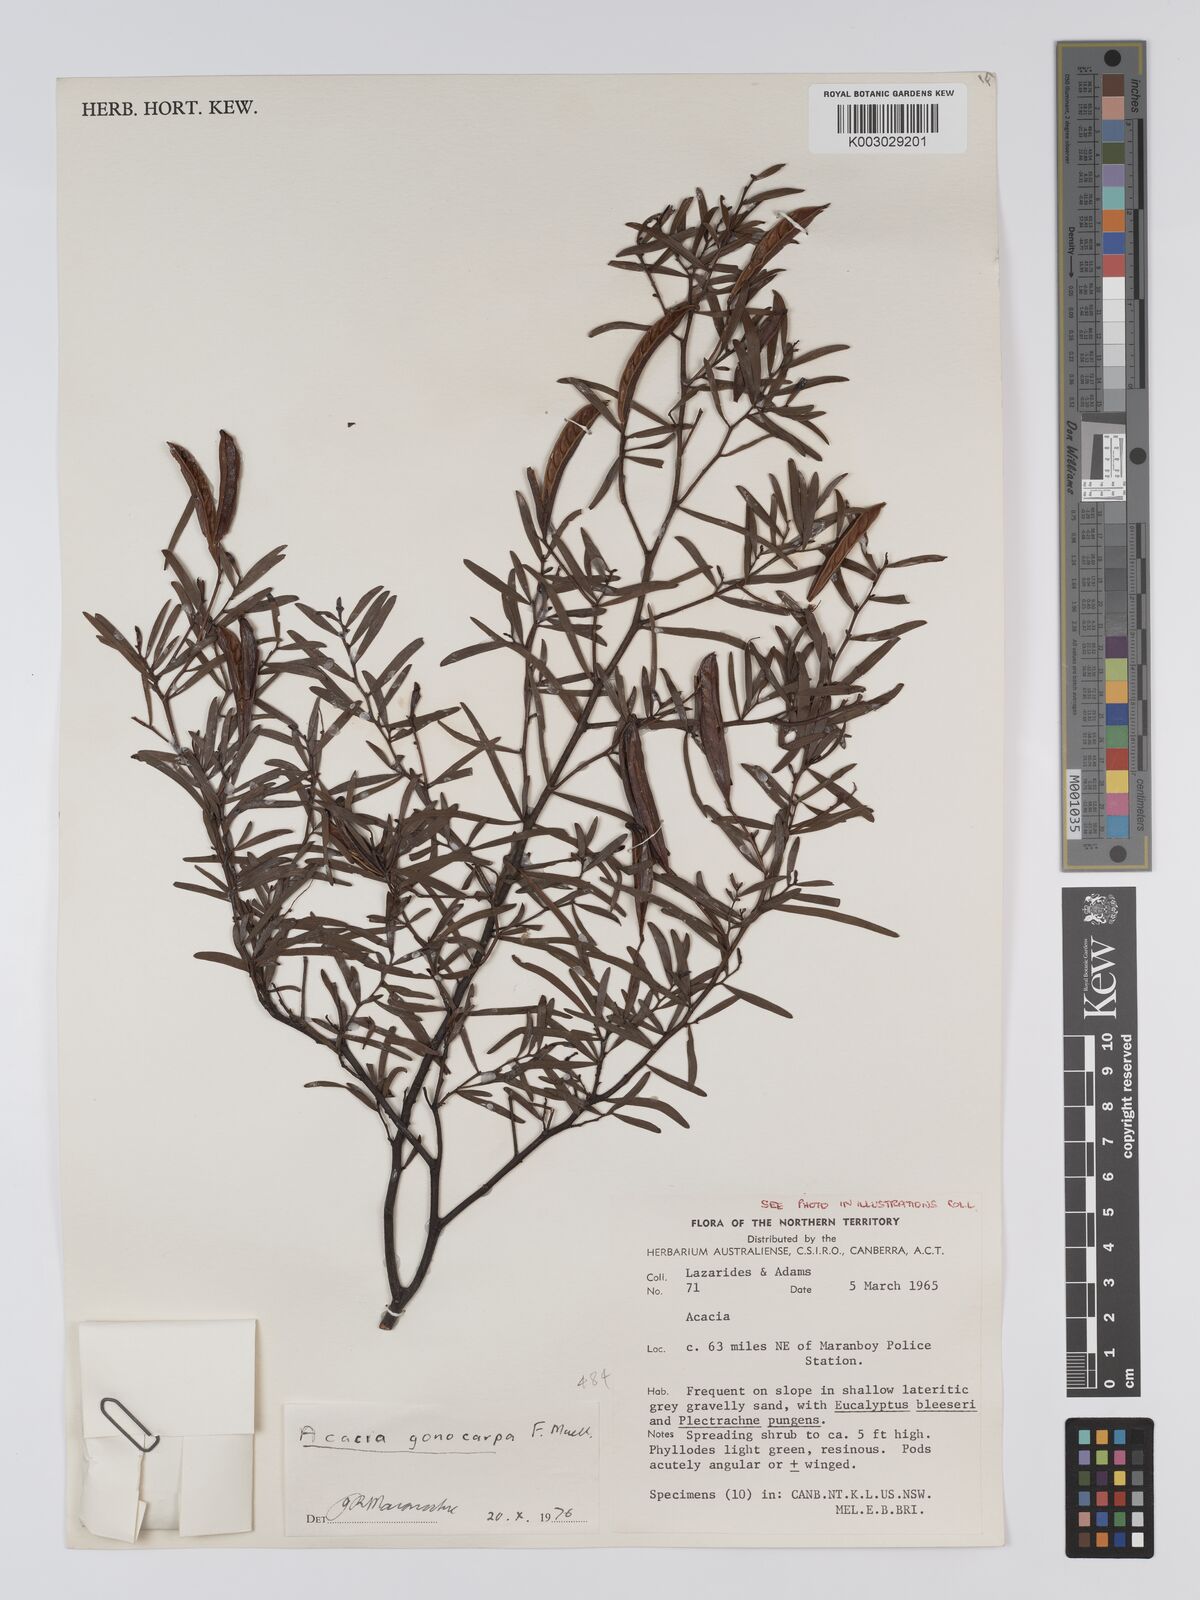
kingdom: Plantae
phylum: Tracheophyta
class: Magnoliopsida
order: Fabales
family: Fabaceae
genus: Acacia
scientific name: Acacia gonocarpa
